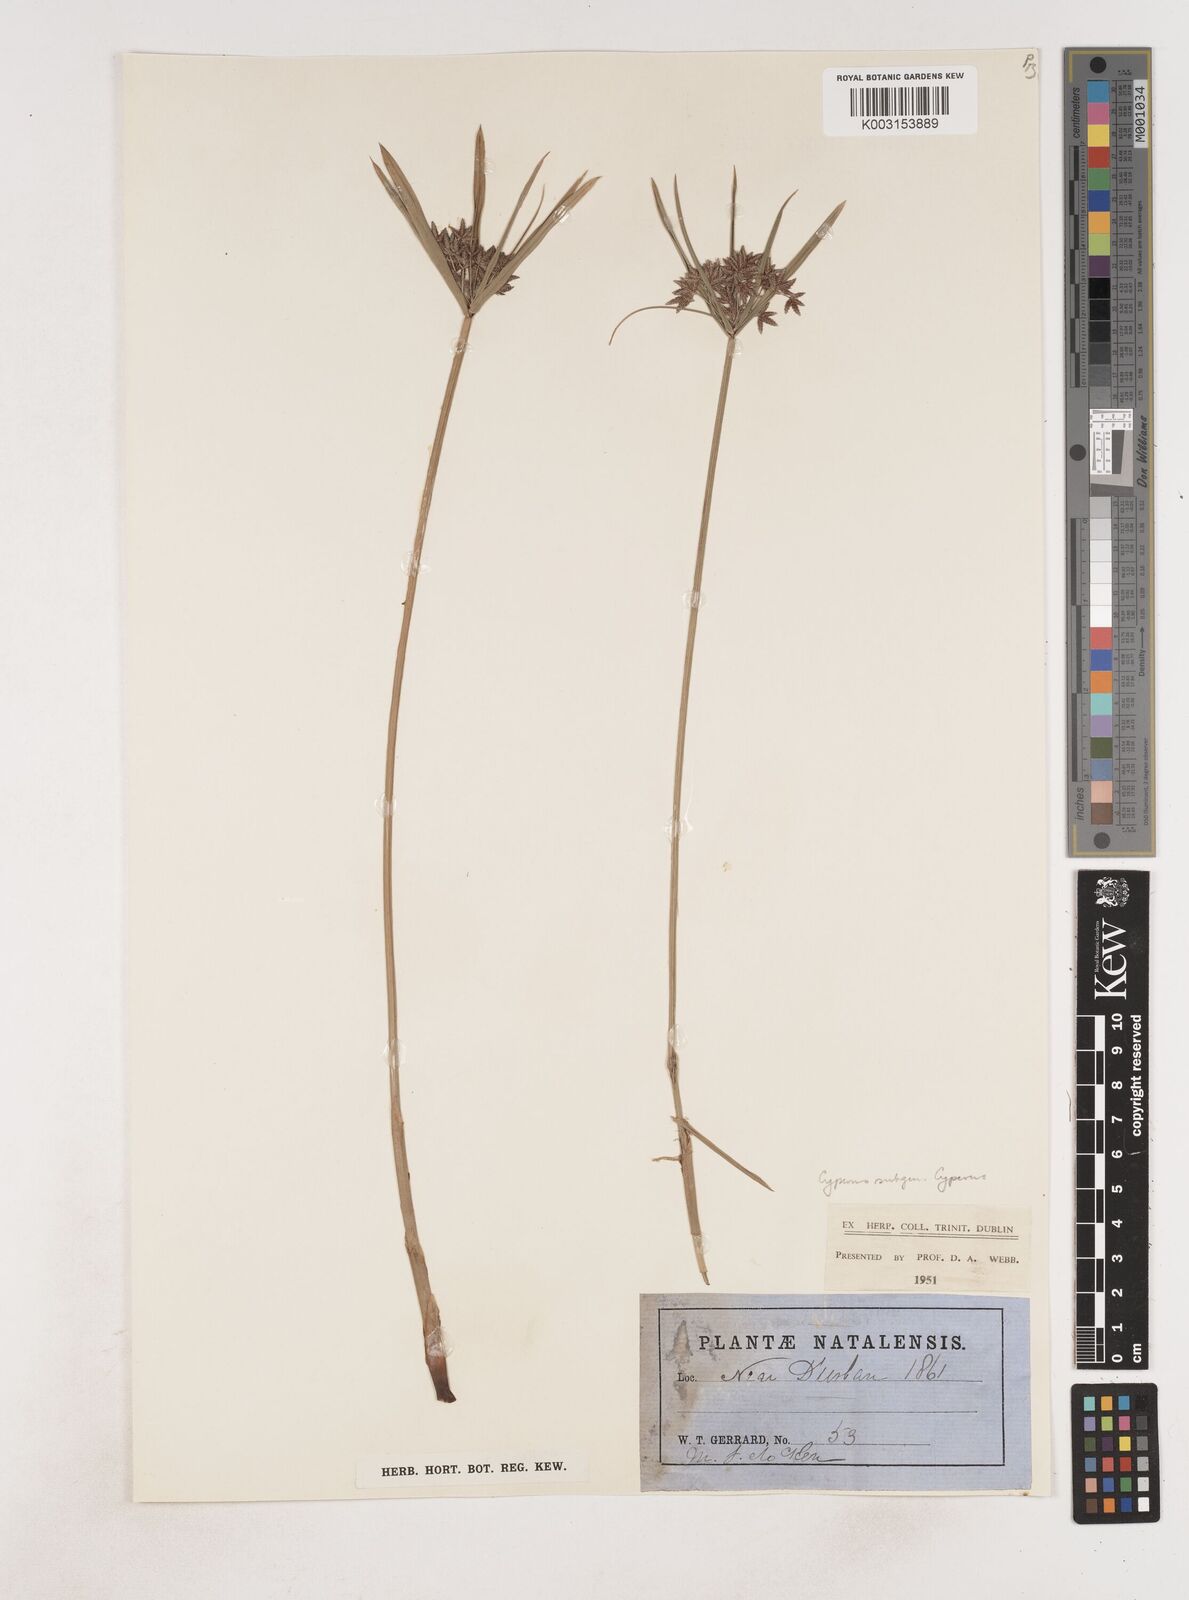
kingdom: Plantae
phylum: Tracheophyta
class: Liliopsida
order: Poales
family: Cyperaceae
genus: Cyperus
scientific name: Cyperus
